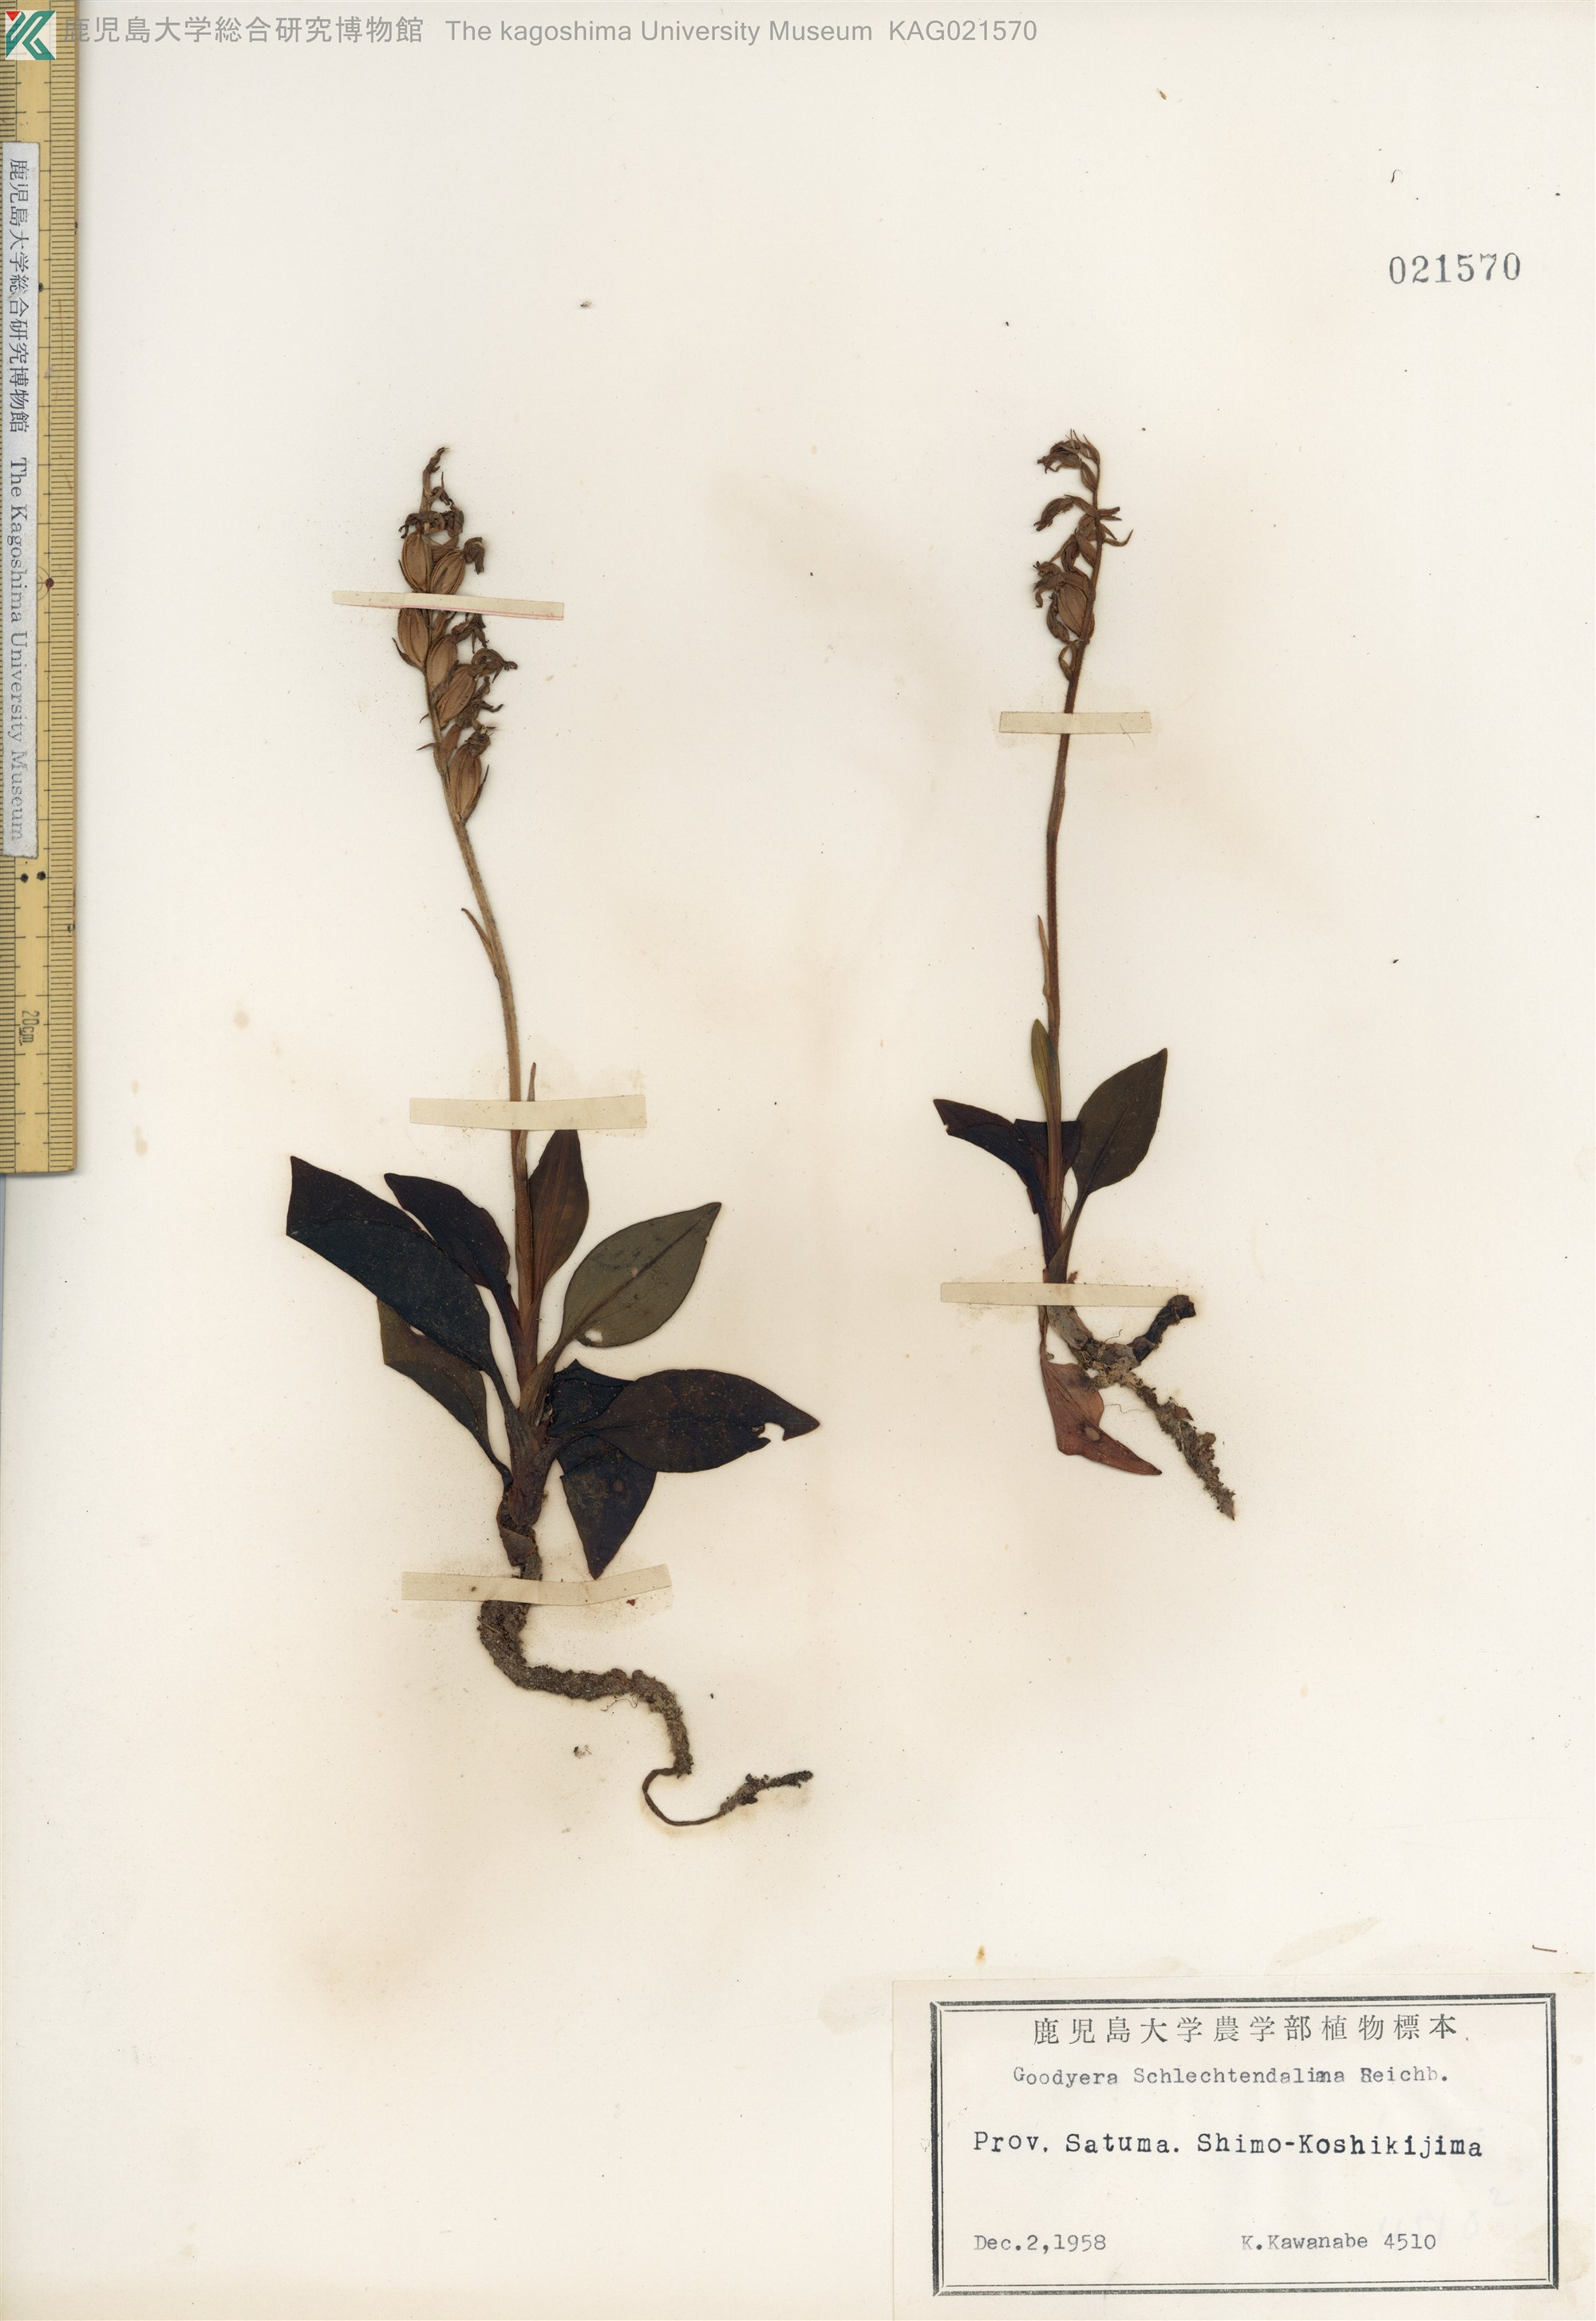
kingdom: Plantae
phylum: Tracheophyta
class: Liliopsida
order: Asparagales
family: Orchidaceae
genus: Goodyera
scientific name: Goodyera schlechtendaliana
